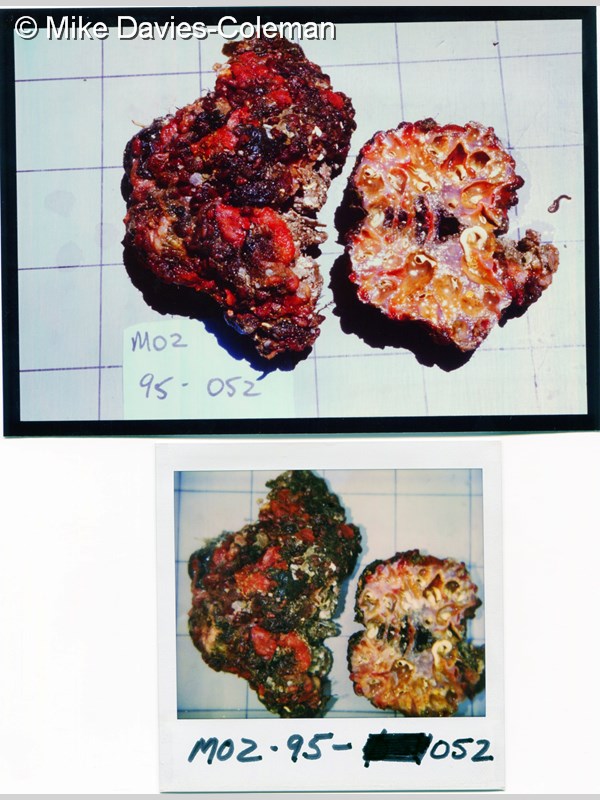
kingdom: Animalia
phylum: Chordata
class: Ascidiacea
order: Phlebobranchia
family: Perophoridae
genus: Ecteinascidia
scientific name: Ecteinascidia
